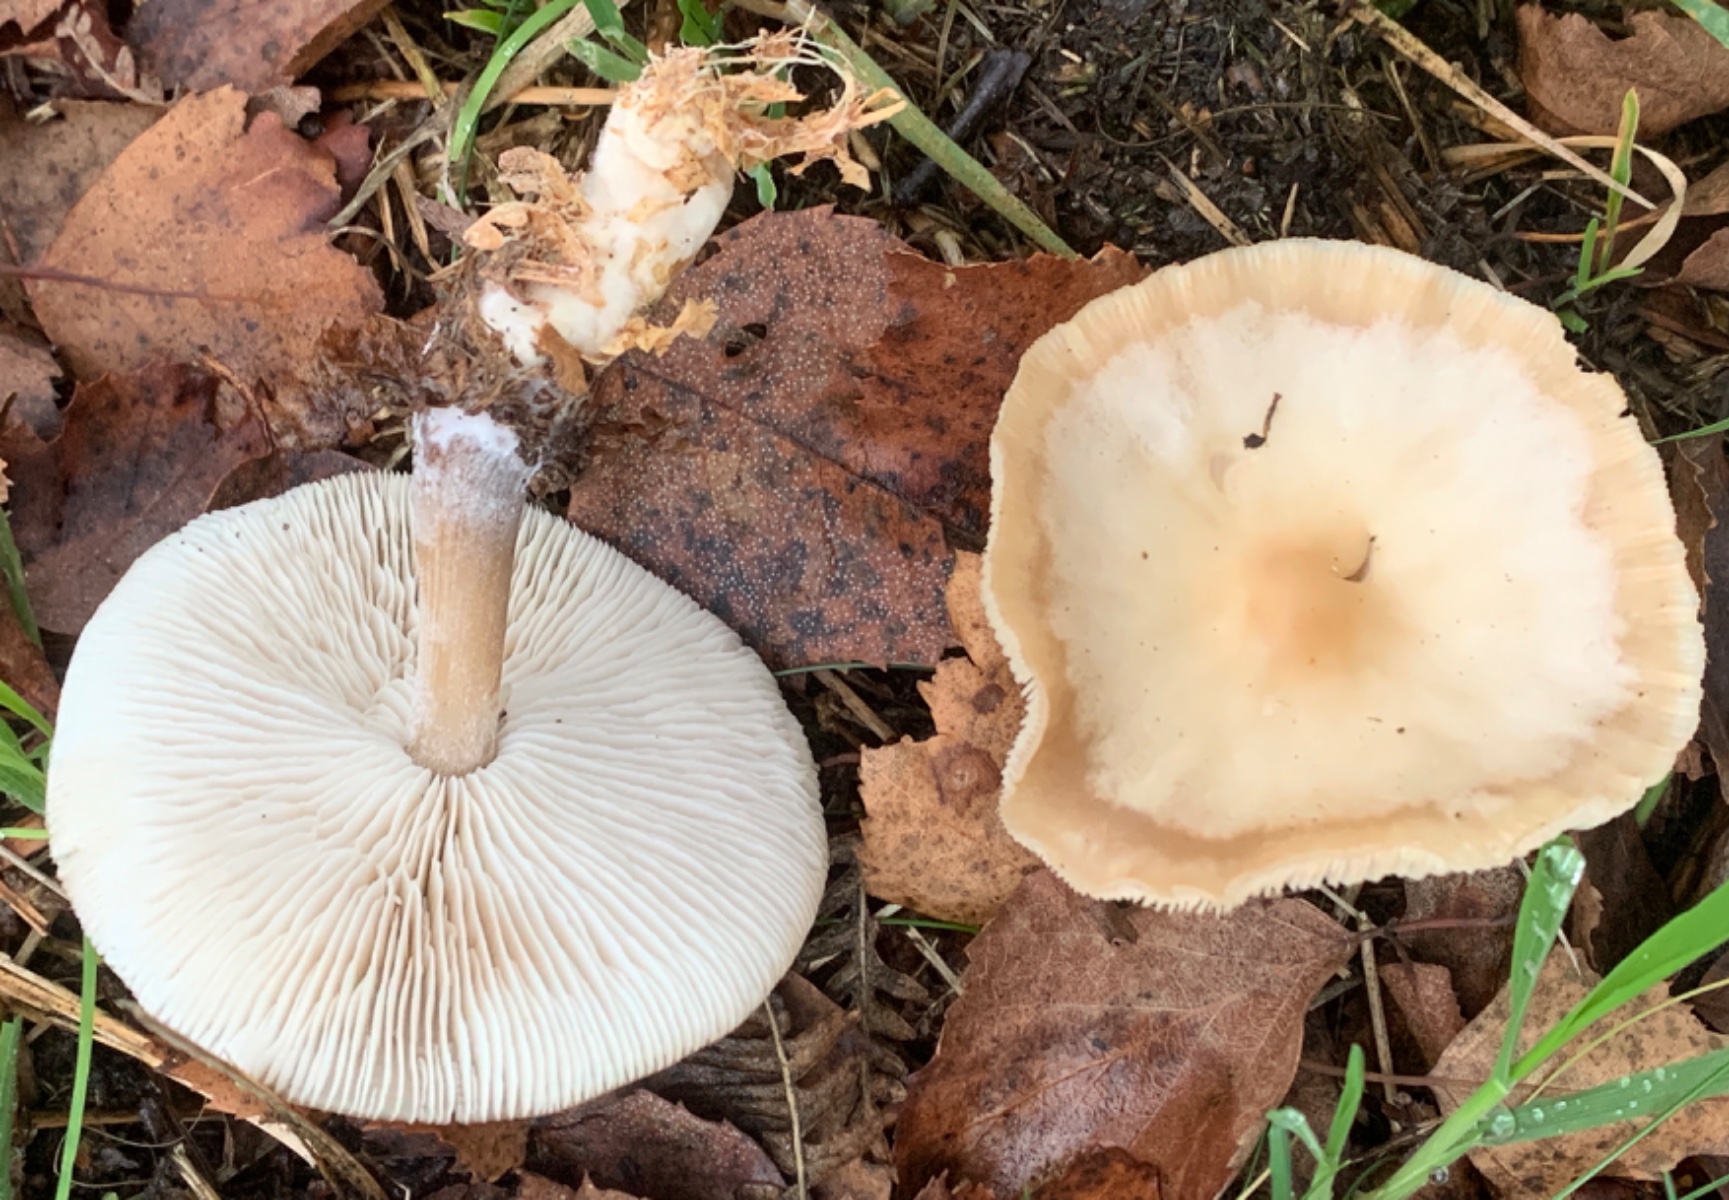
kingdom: Fungi
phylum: Basidiomycota
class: Agaricomycetes
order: Agaricales
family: Omphalotaceae
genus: Rhodocollybia
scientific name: Rhodocollybia asema
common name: horngrå fladhat
